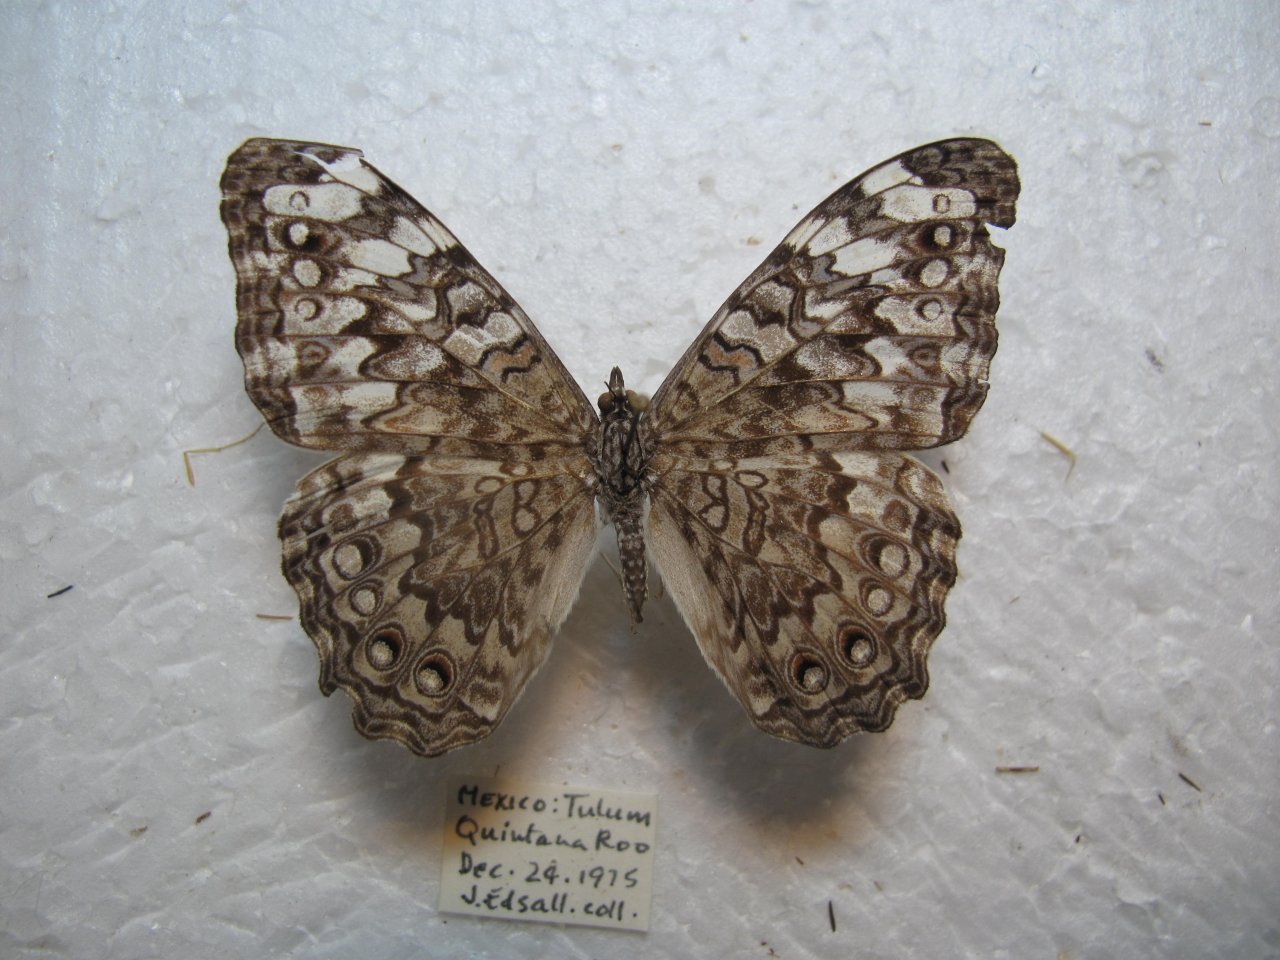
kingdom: Animalia
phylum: Arthropoda
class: Insecta
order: Lepidoptera
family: Nymphalidae
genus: Hamadryas
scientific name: Hamadryas februa
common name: Gray Cracker
